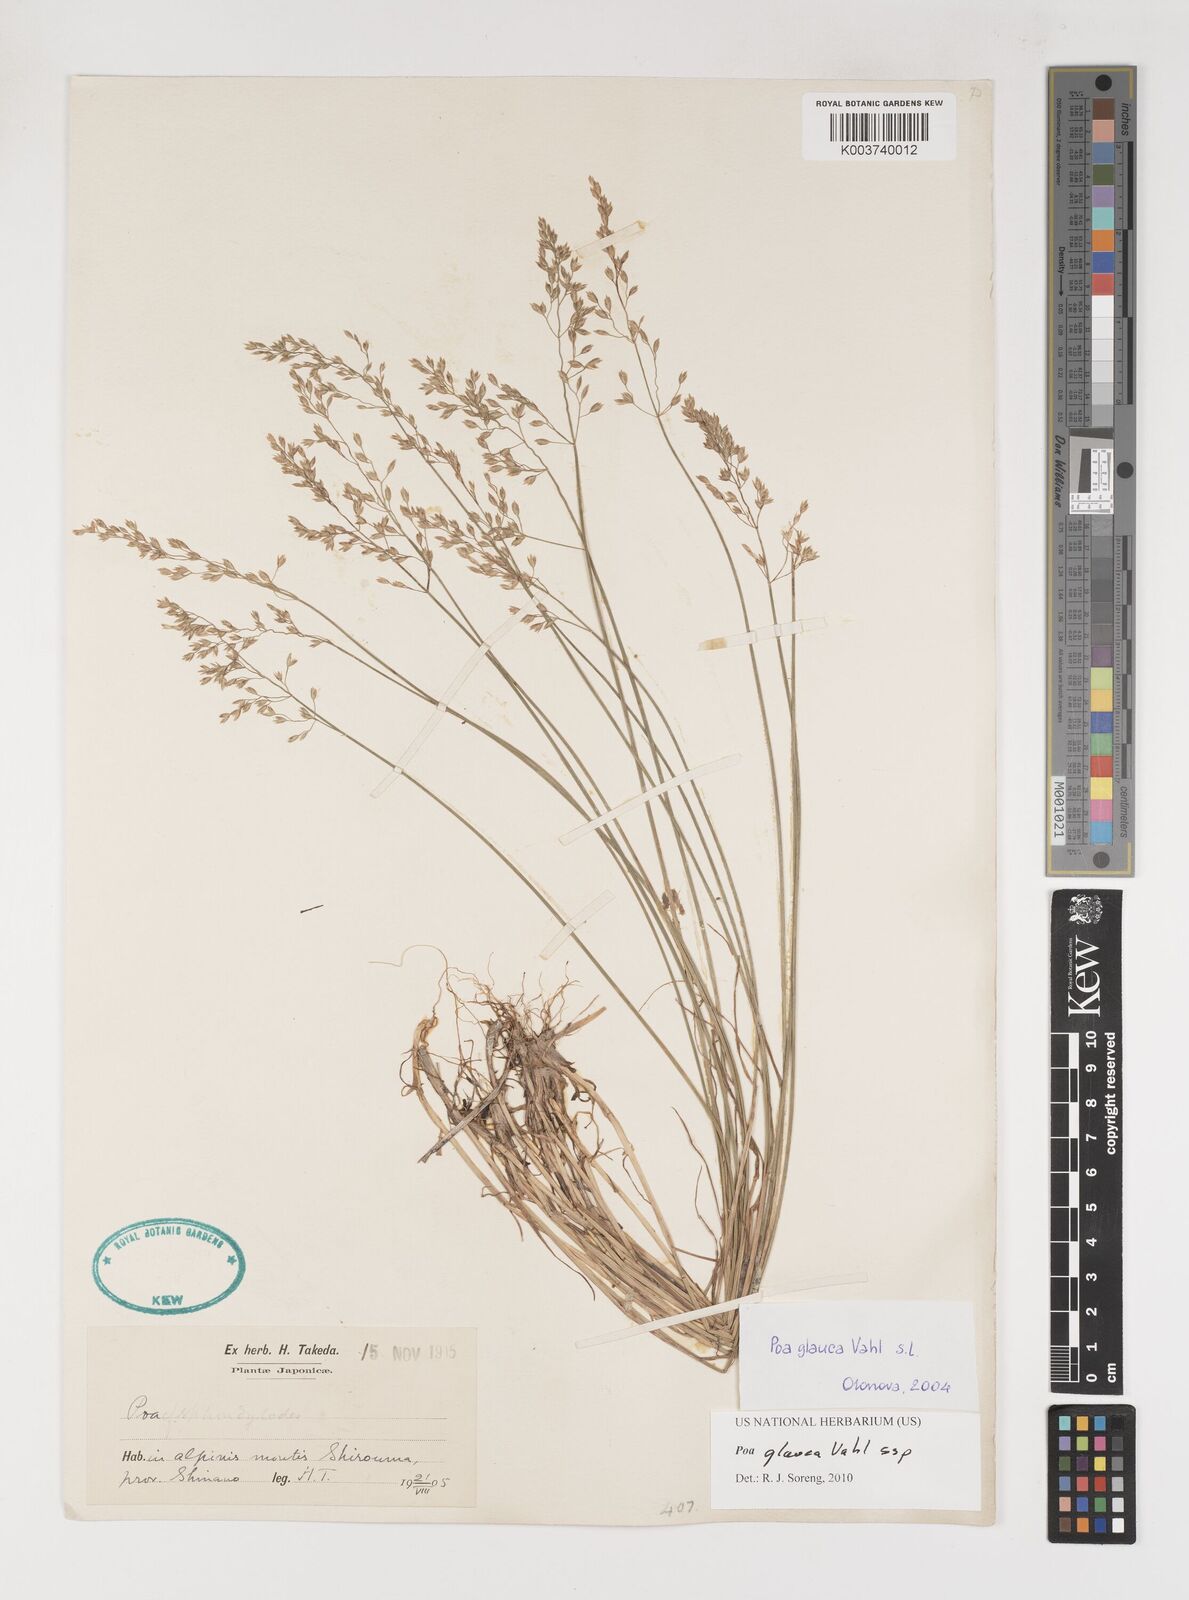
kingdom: Plantae
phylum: Tracheophyta
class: Liliopsida
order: Poales
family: Poaceae
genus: Poa
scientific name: Poa glauca
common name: Glaucous bluegrass
